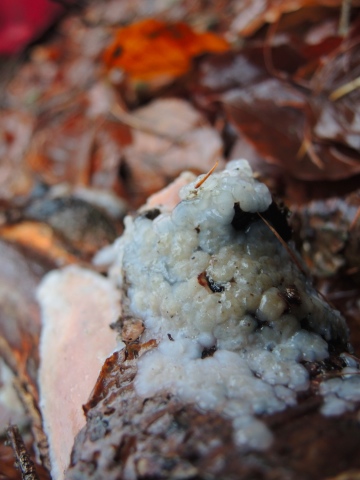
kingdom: Fungi
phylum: Basidiomycota
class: Agaricomycetes
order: Auriculariales
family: Auriculariaceae
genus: Exidia
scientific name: Exidia thuretiana
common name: hvidlig bævretop
